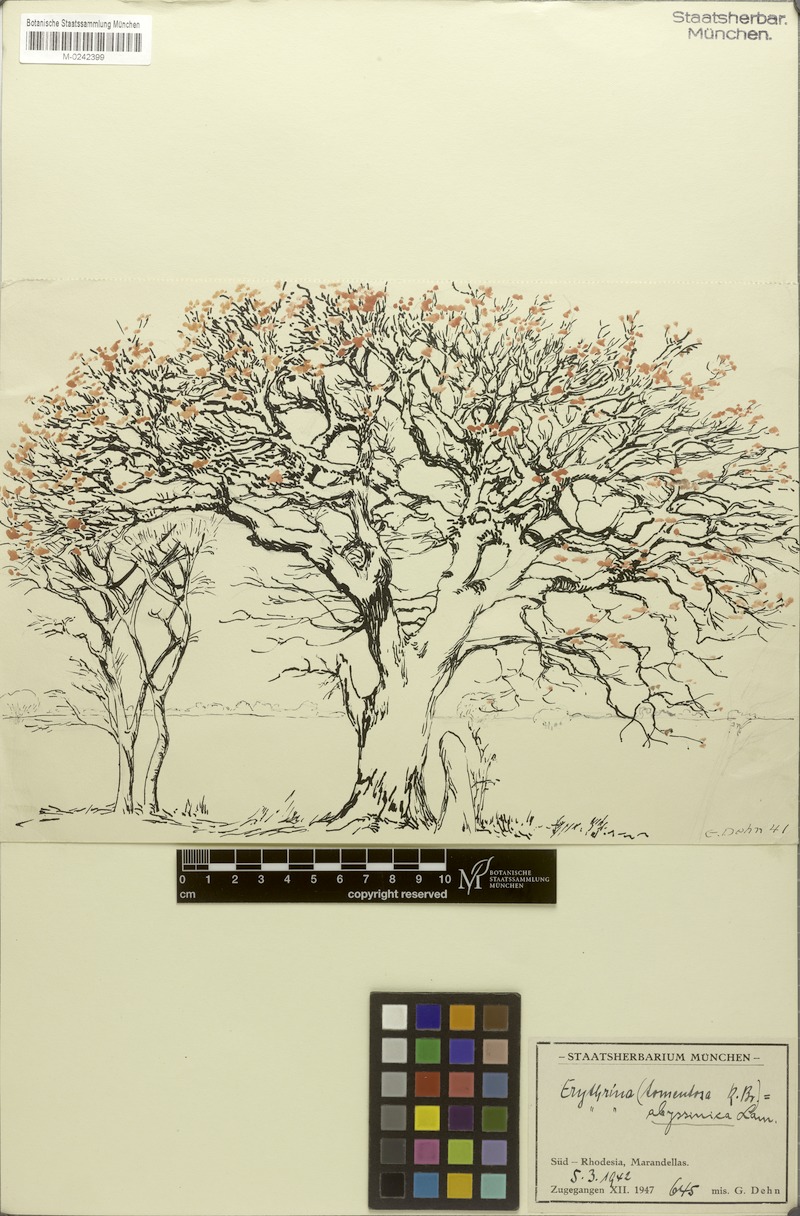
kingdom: Plantae
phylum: Tracheophyta
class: Magnoliopsida
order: Fabales
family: Fabaceae
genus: Erythrina
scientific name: Erythrina abyssinica
